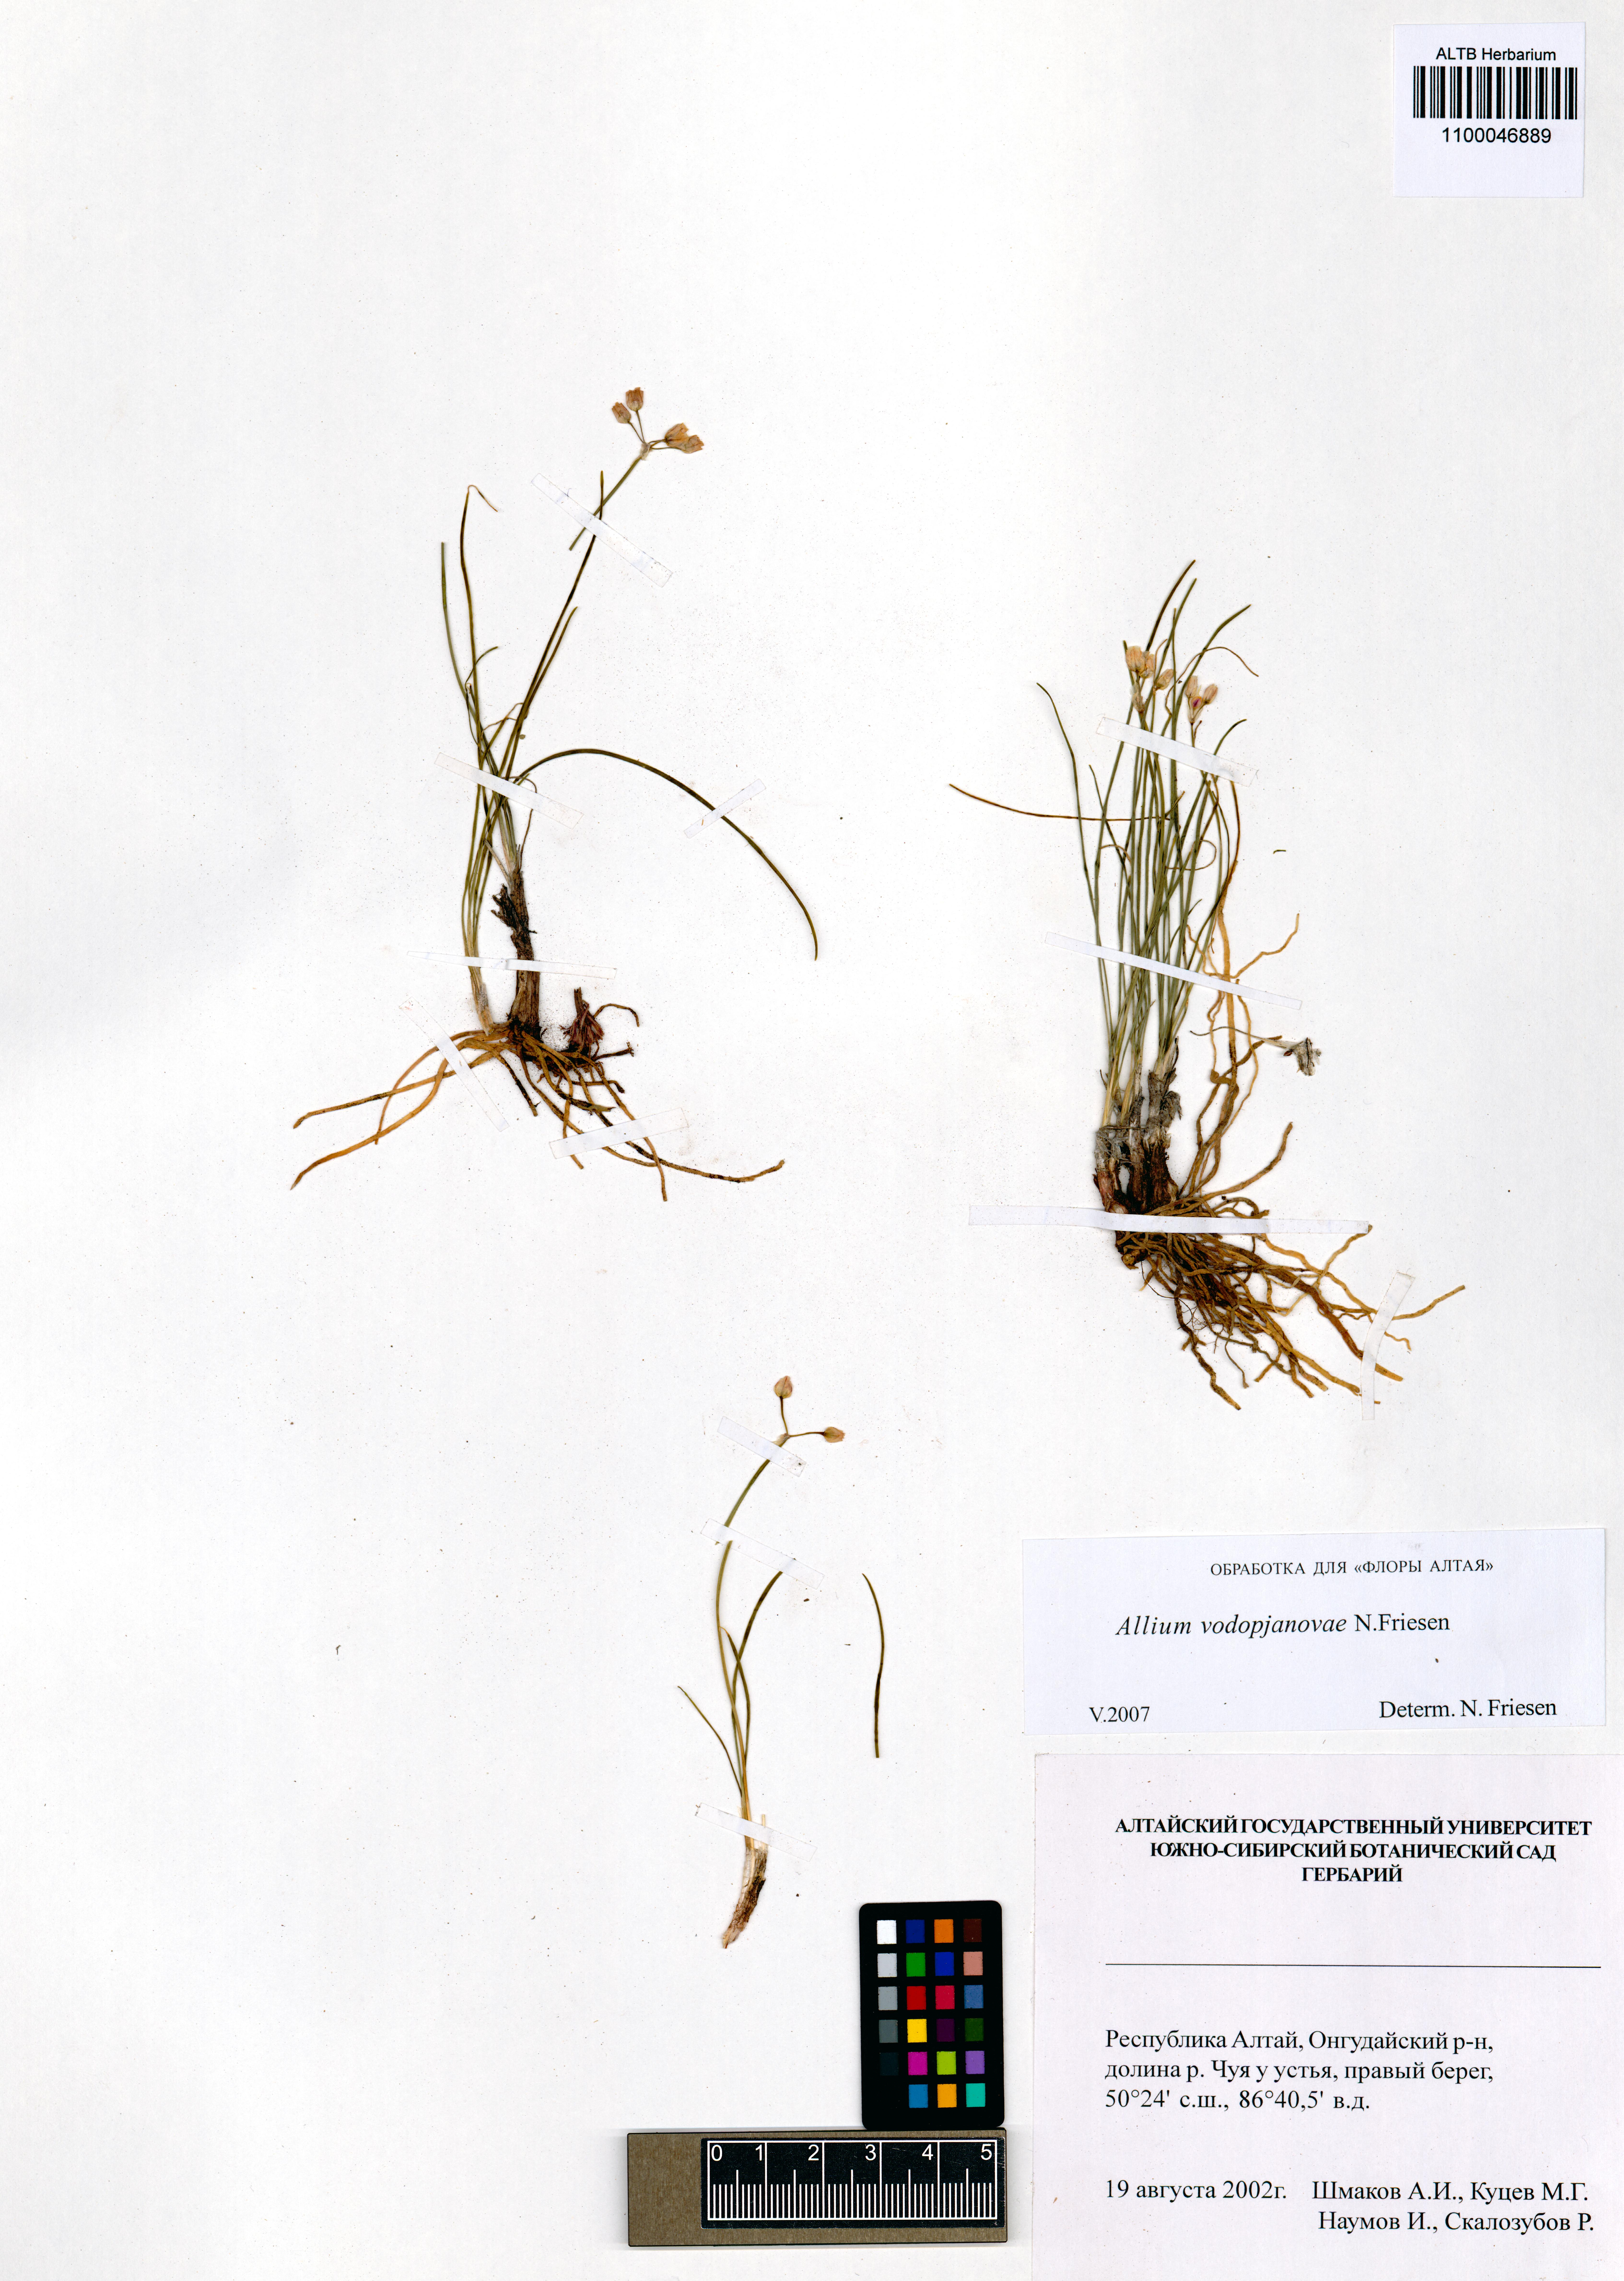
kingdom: Plantae
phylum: Tracheophyta
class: Liliopsida
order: Asparagales
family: Amaryllidaceae
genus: Allium
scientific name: Allium vodopjanovae
